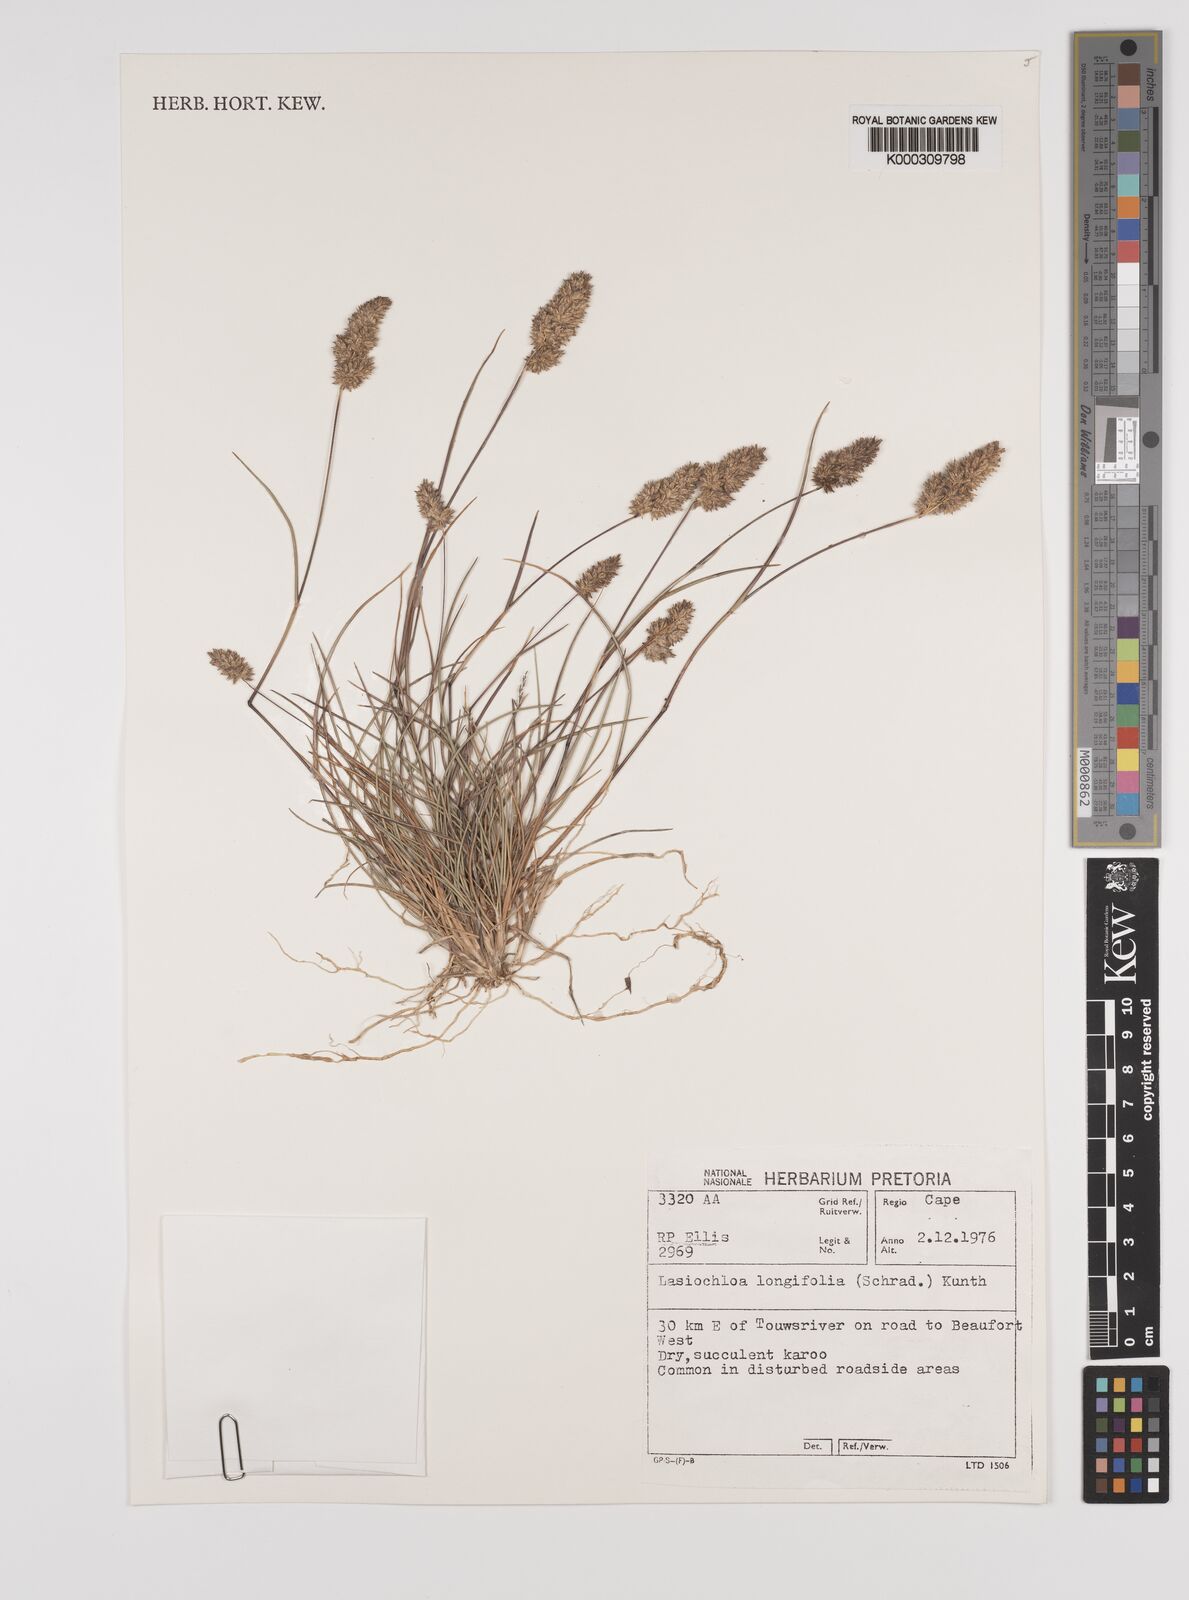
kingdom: Plantae
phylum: Tracheophyta
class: Liliopsida
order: Poales
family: Poaceae
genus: Tribolium
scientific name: Tribolium hispidum
